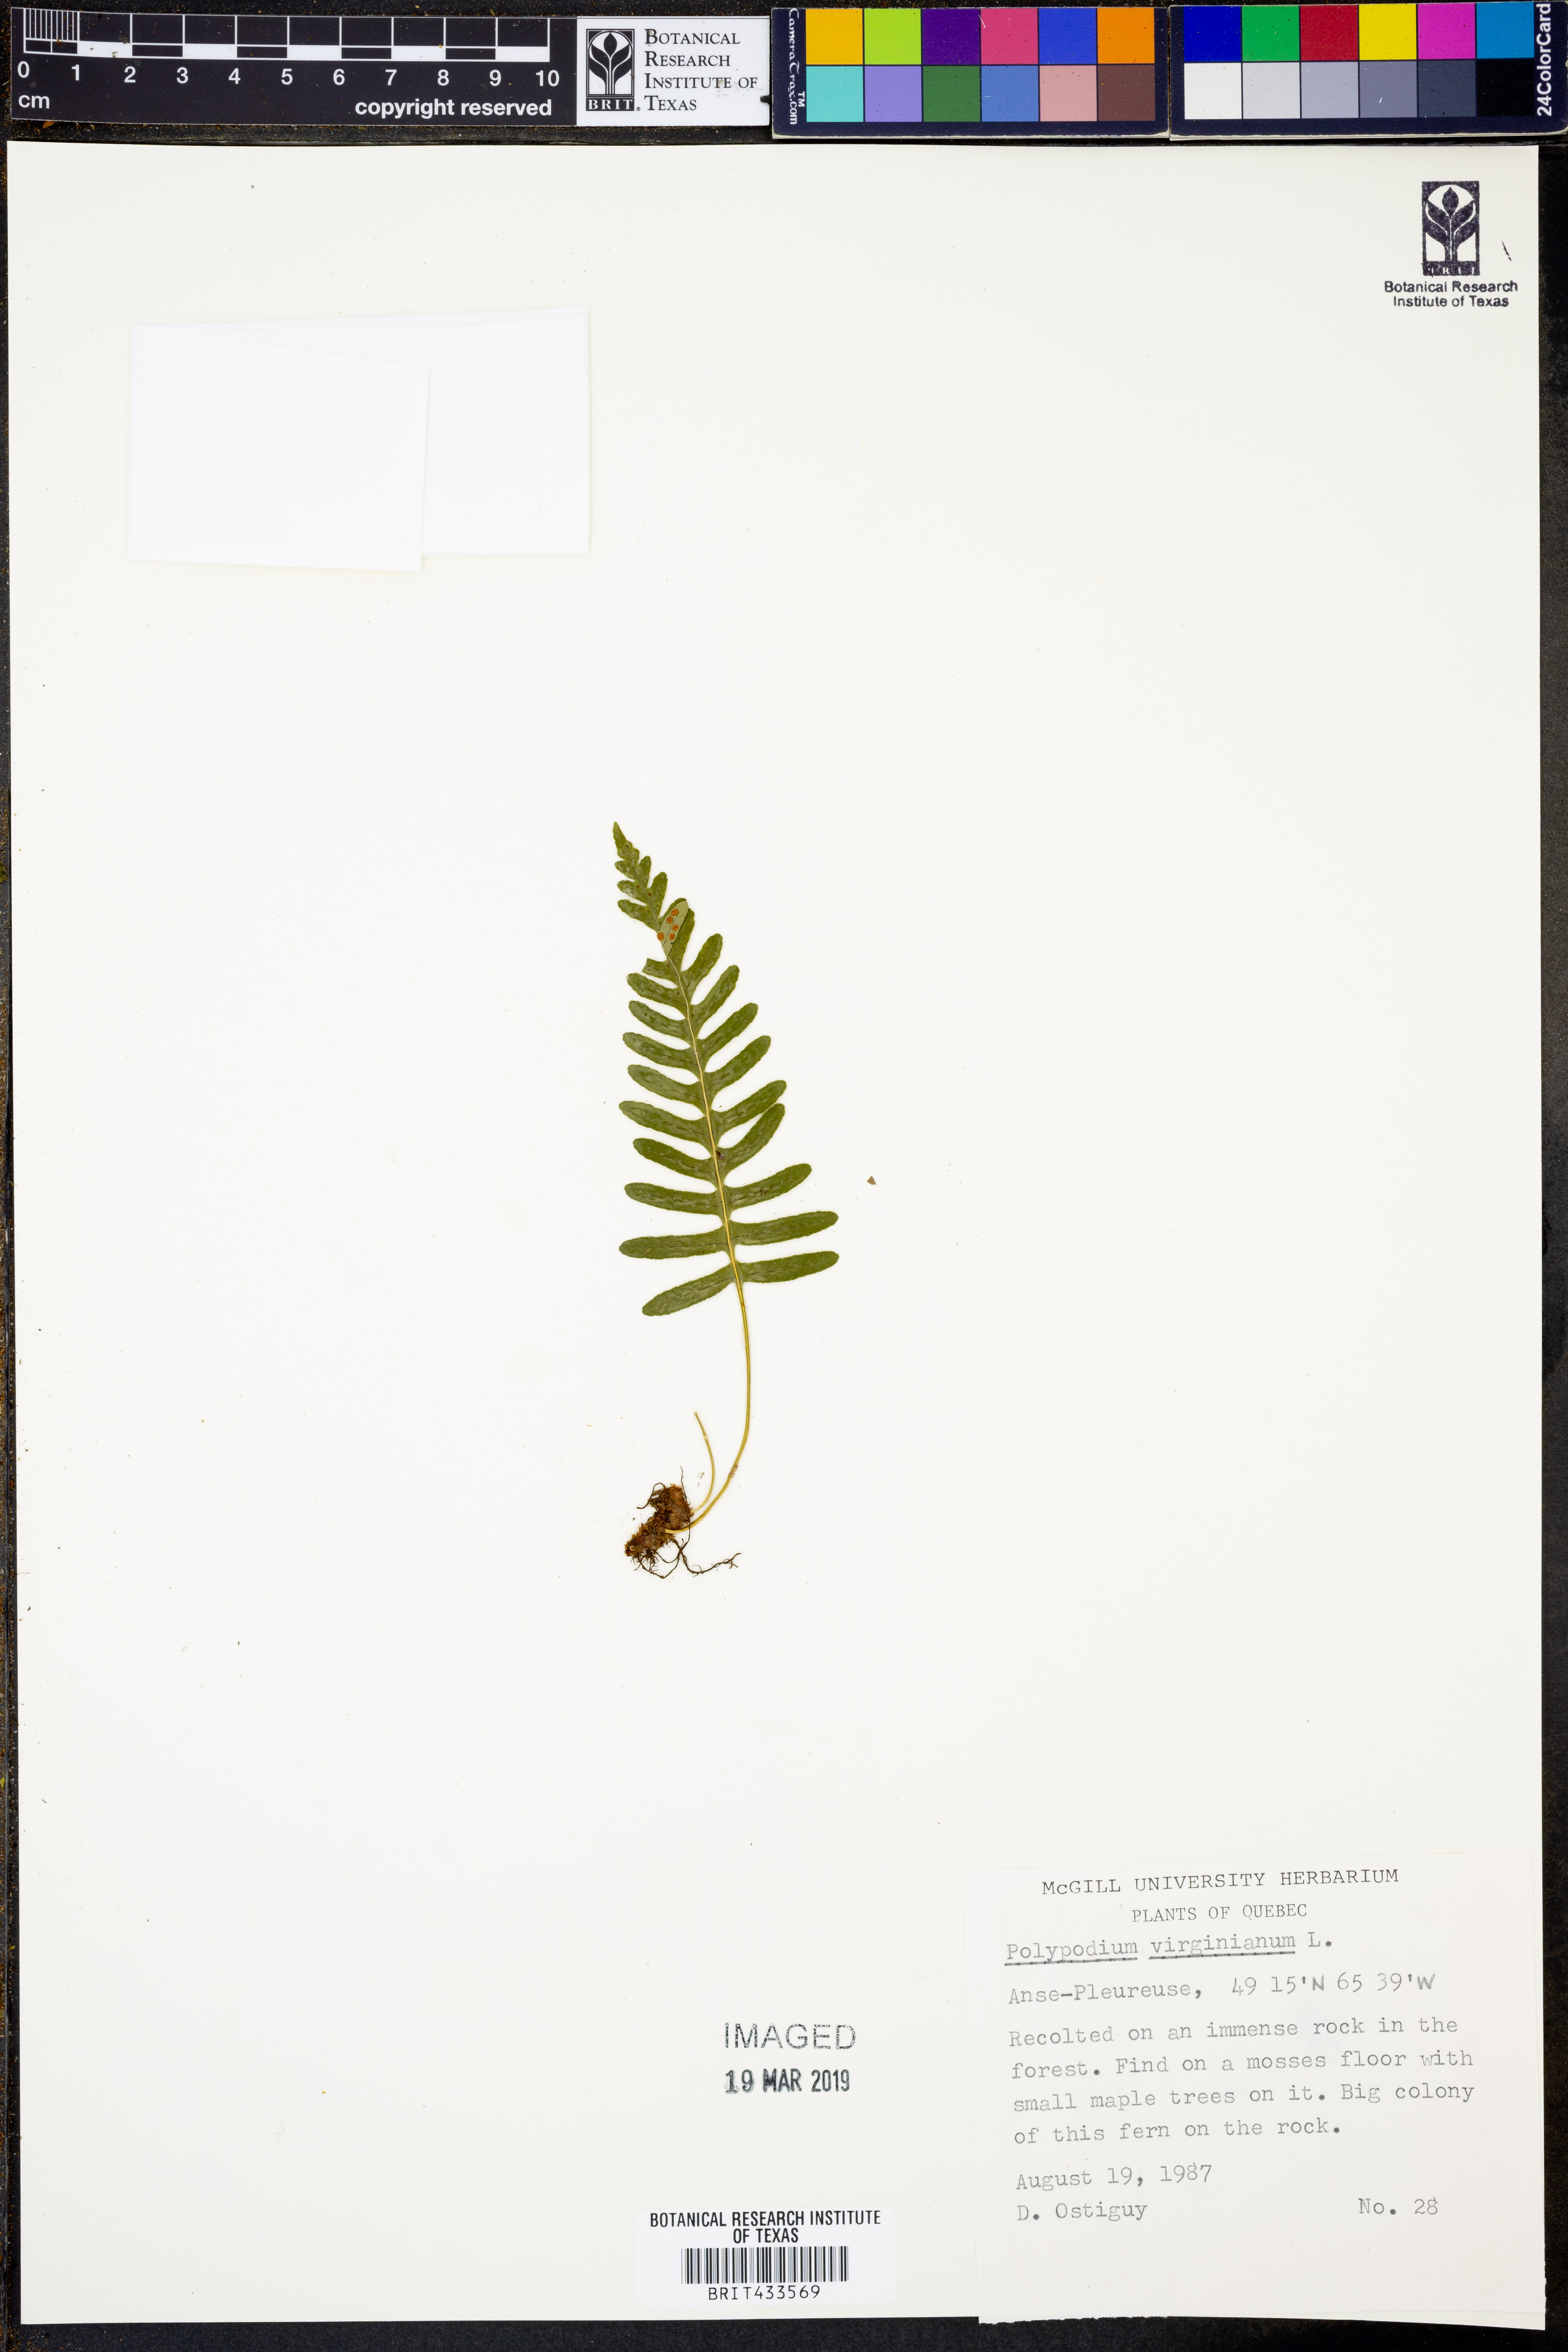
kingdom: Plantae
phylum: Tracheophyta
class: Polypodiopsida
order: Polypodiales
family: Polypodiaceae
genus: Polypodium
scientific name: Polypodium virginianum
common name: American wall fern
